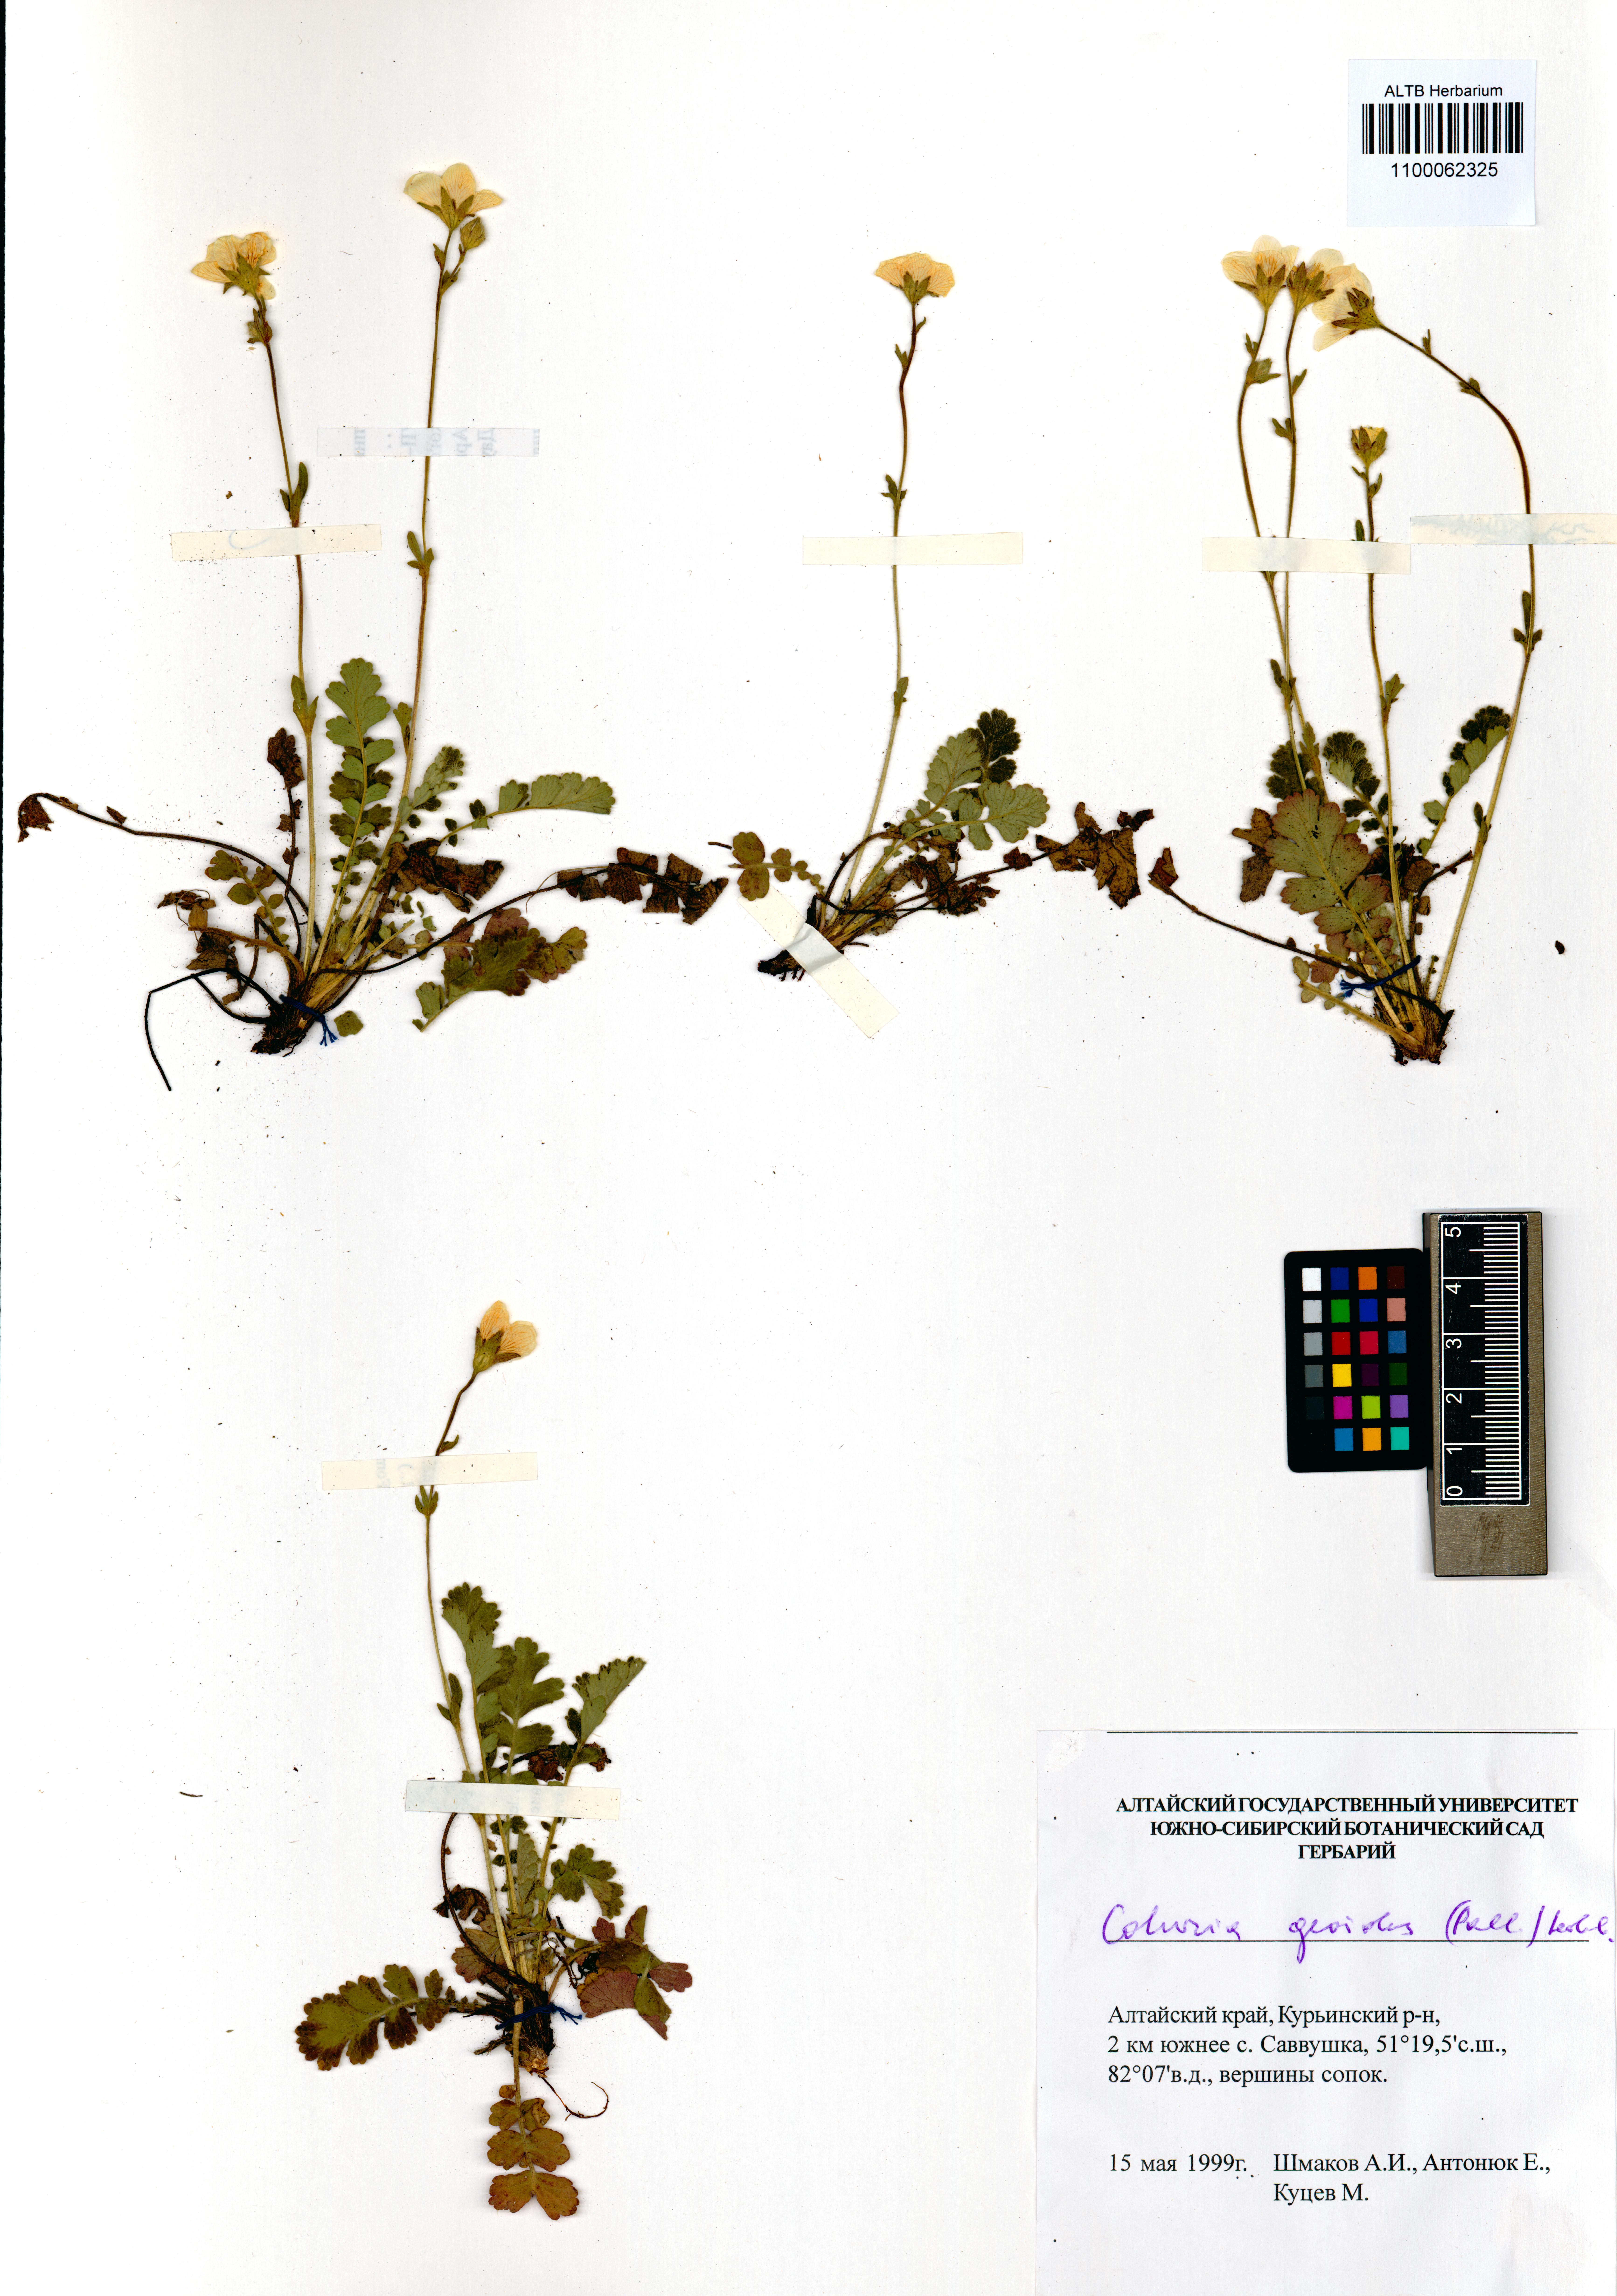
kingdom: Plantae
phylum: Tracheophyta
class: Magnoliopsida
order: Rosales
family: Rosaceae
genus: Geum
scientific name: Geum geoides
